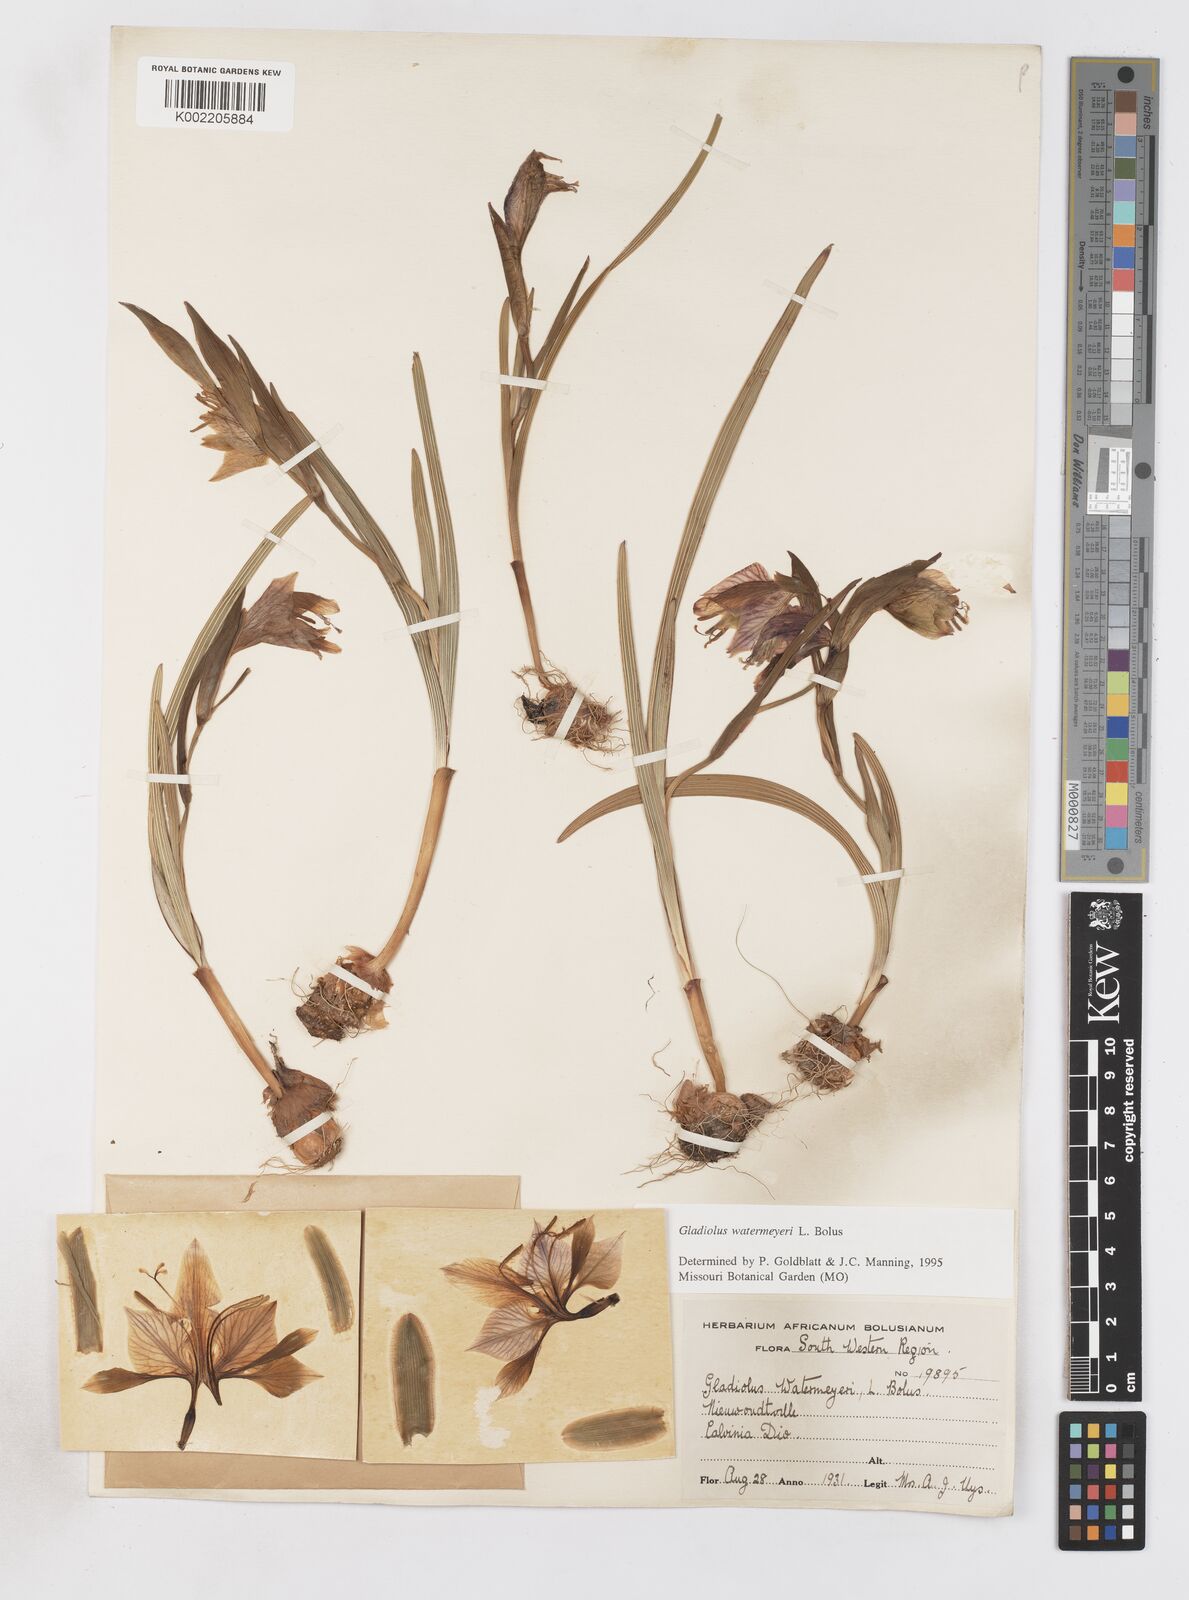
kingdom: Plantae
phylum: Tracheophyta
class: Liliopsida
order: Asparagales
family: Iridaceae
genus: Gladiolus
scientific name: Gladiolus watermeyeri
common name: Sweet kalkoentjie
